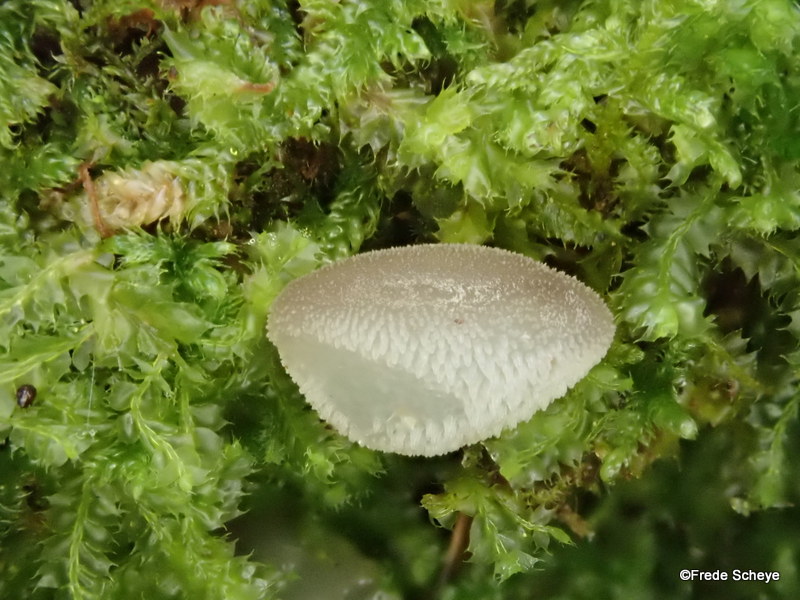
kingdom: Fungi
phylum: Basidiomycota
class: Agaricomycetes
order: Auriculariales
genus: Pseudohydnum
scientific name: Pseudohydnum gelatinosum
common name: bævretand
